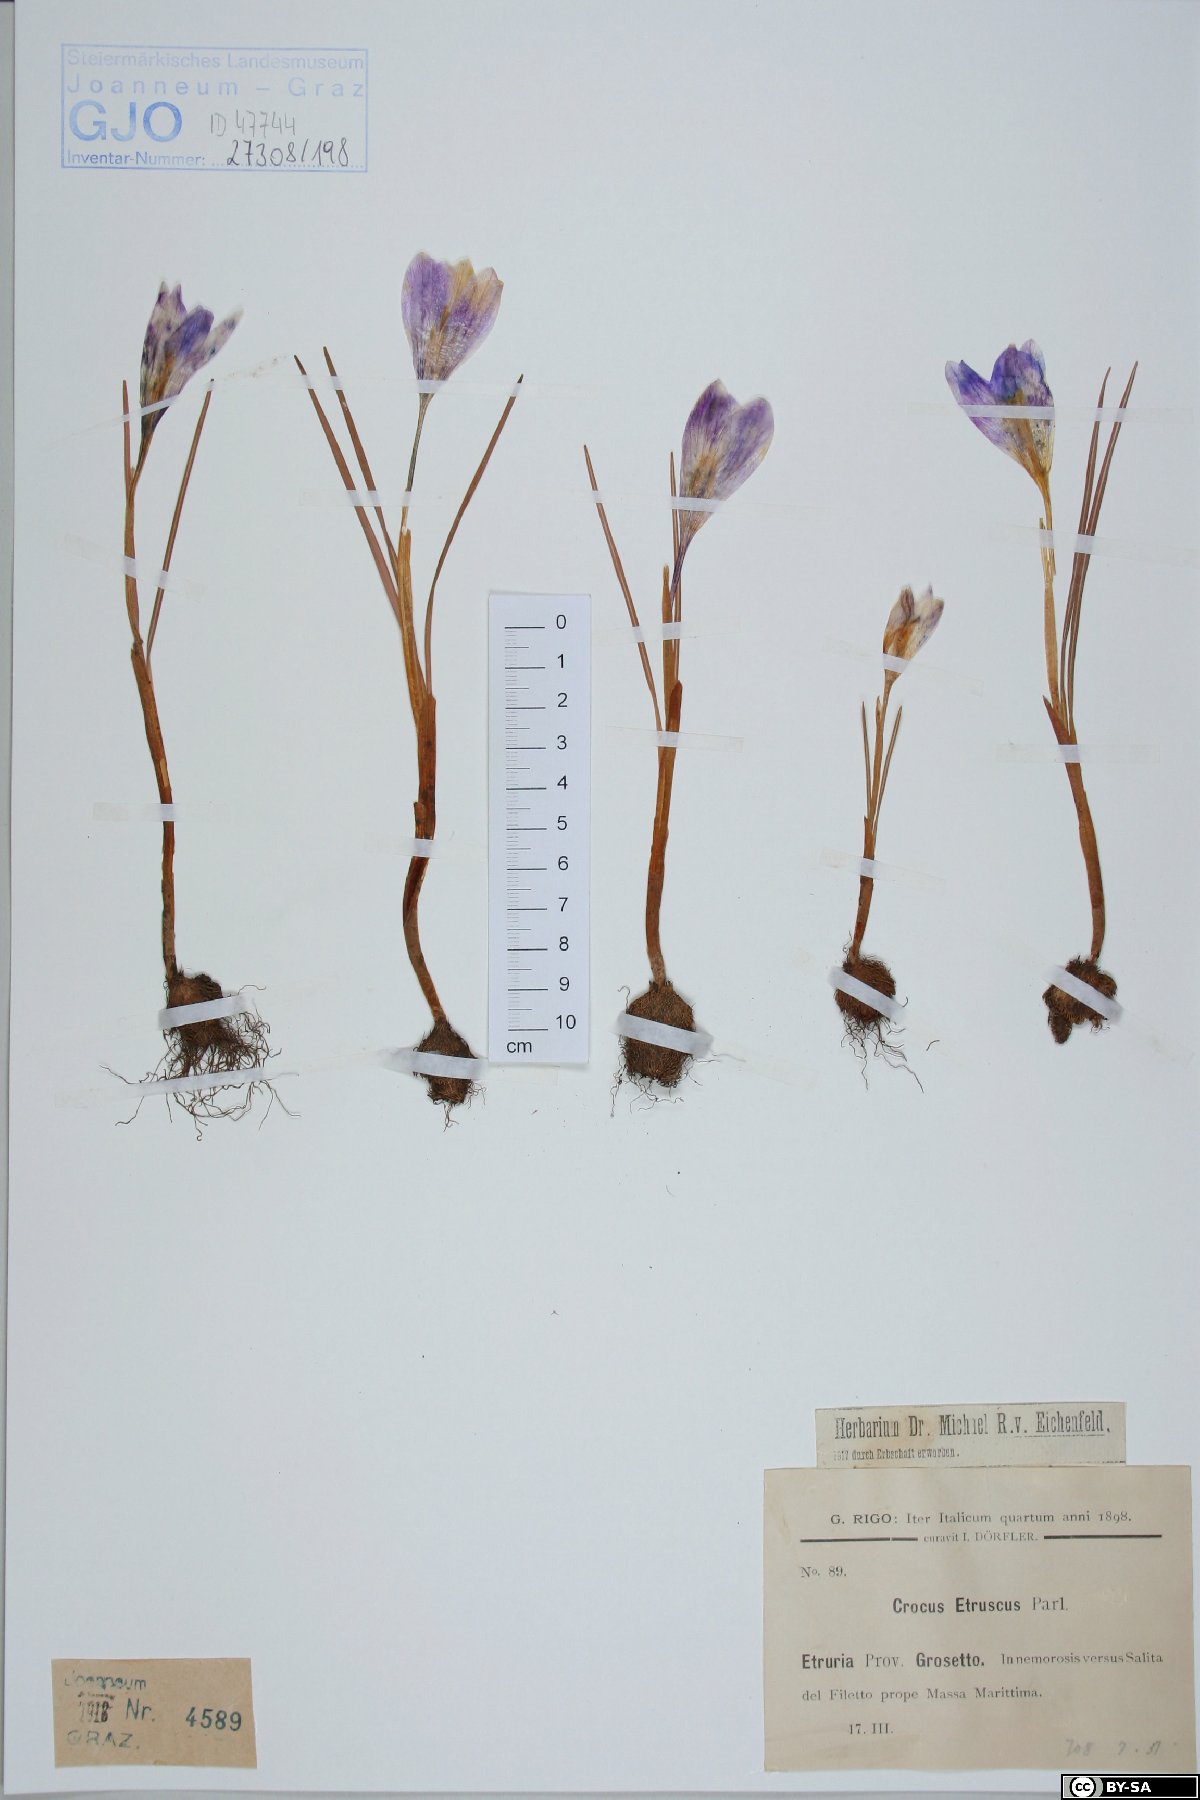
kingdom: Plantae
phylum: Tracheophyta
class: Liliopsida
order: Asparagales
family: Iridaceae
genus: Crocus
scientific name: Crocus etruscus
